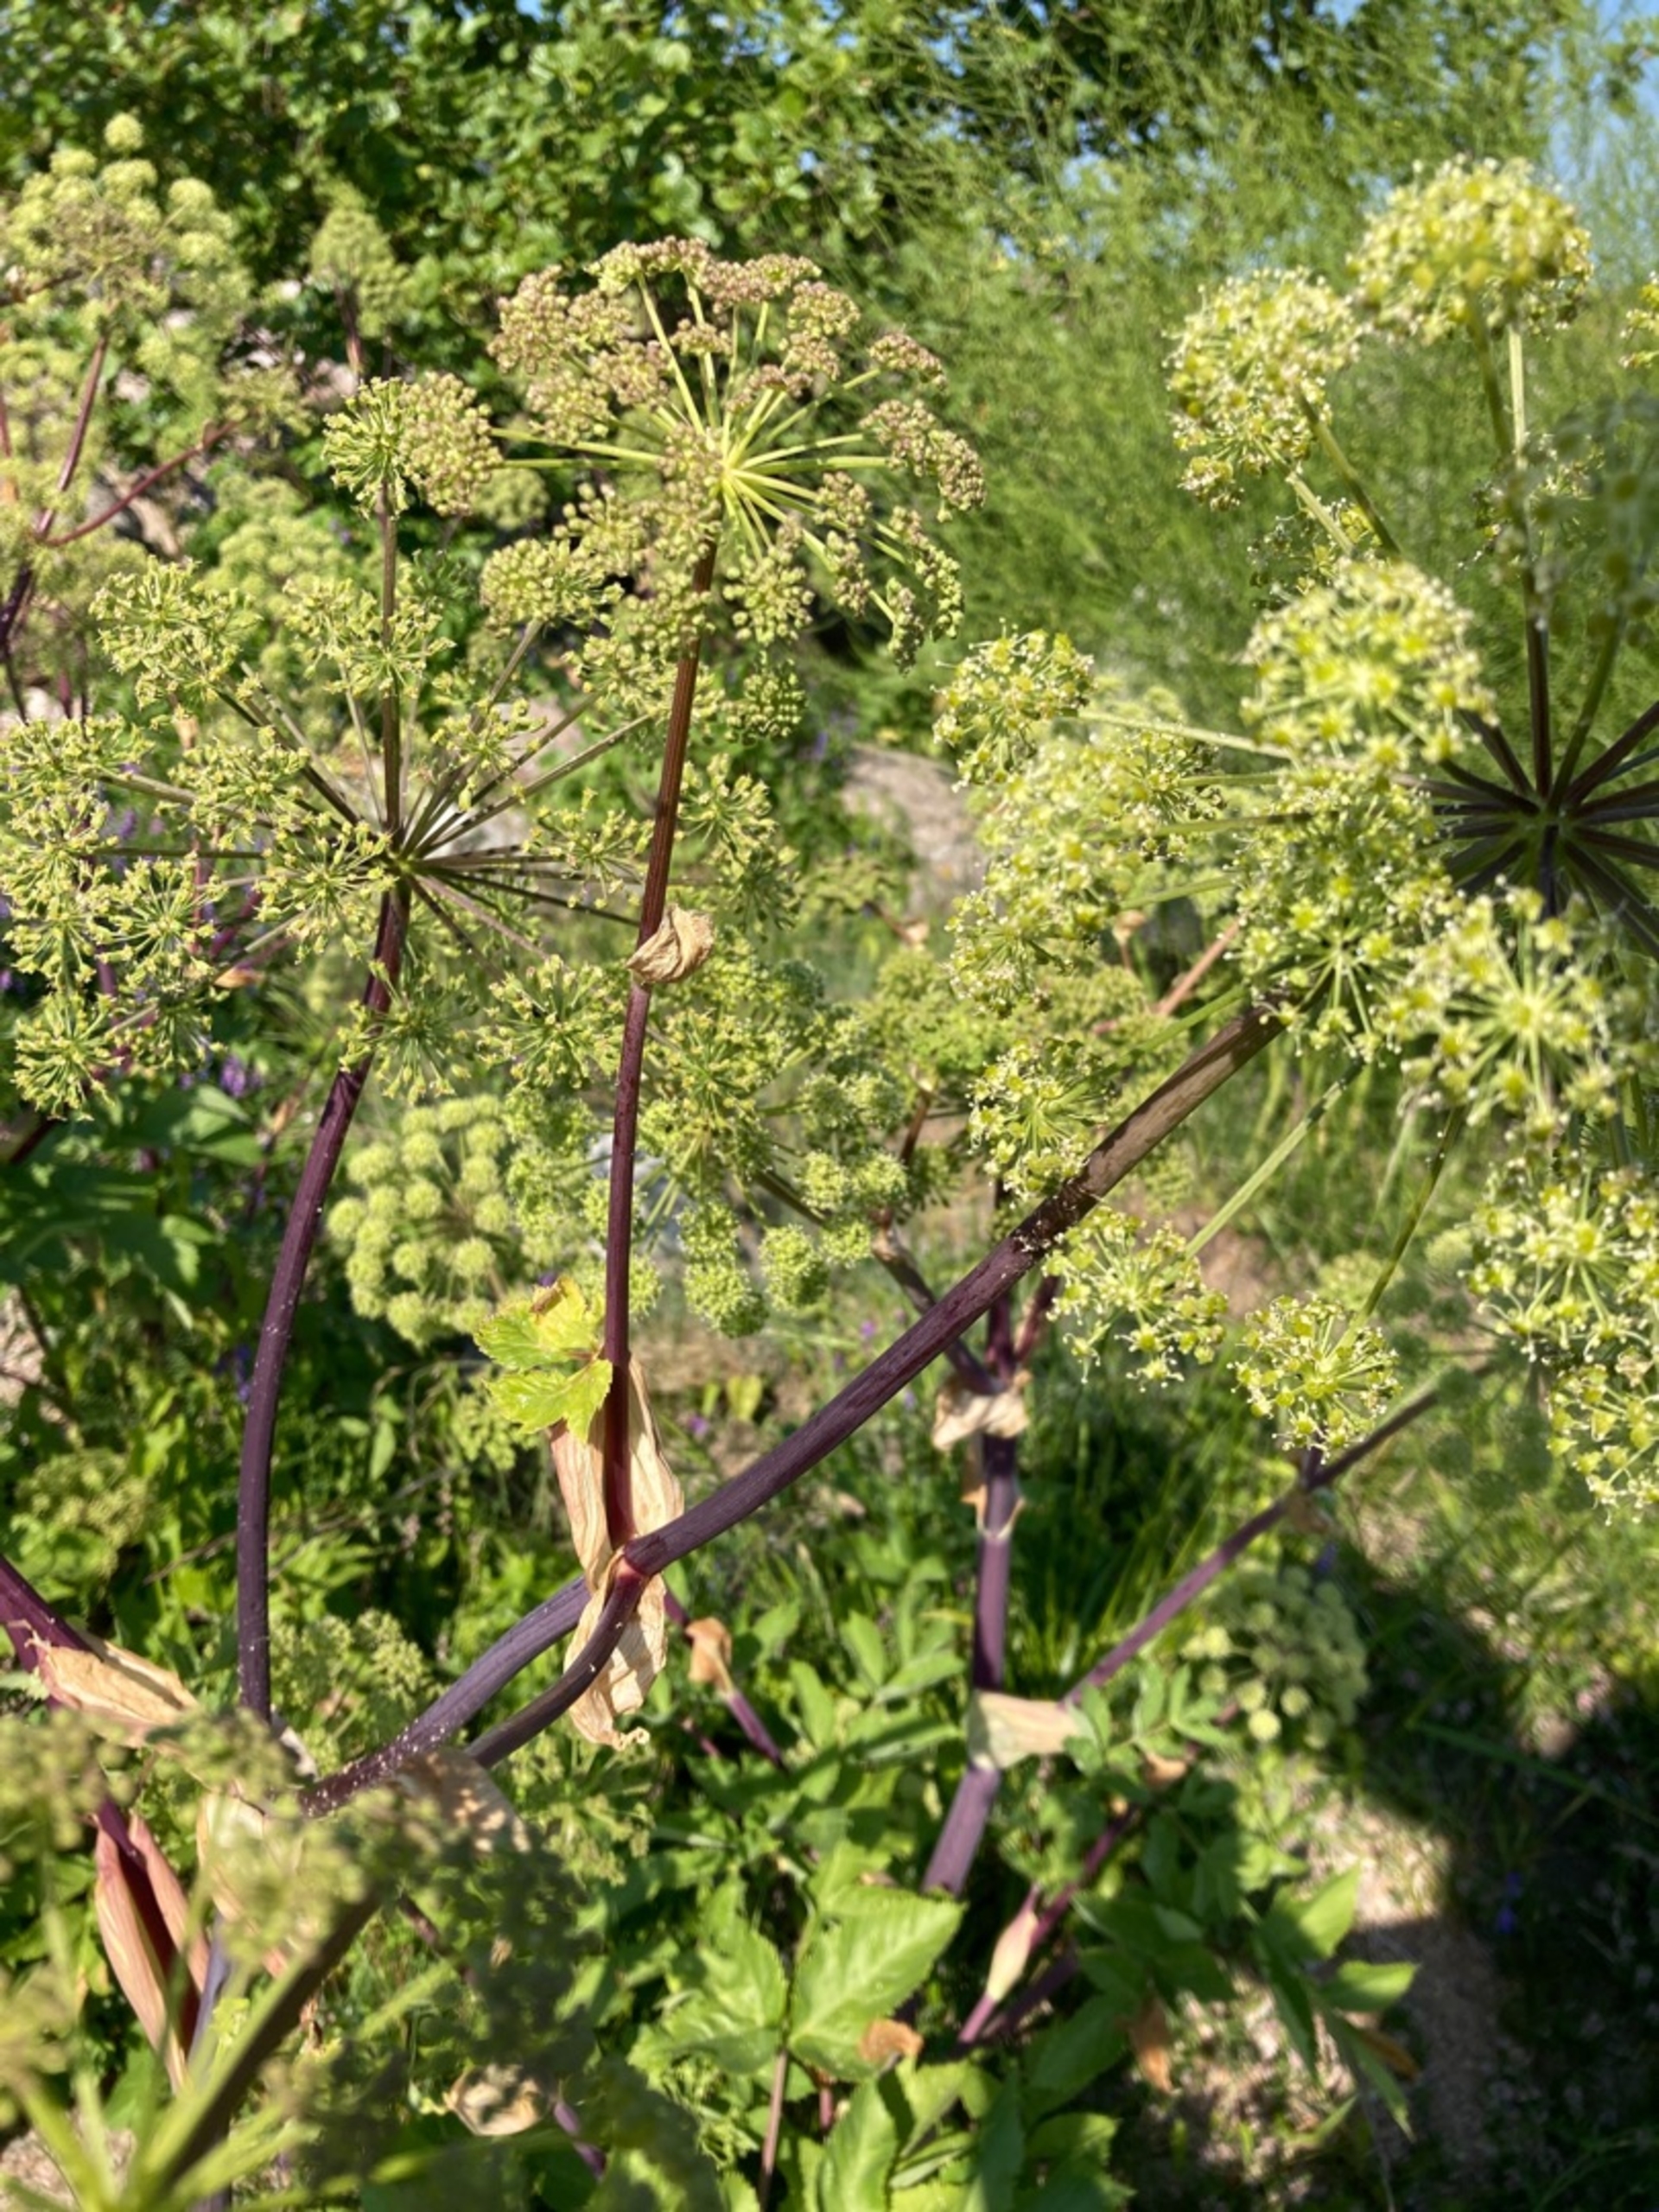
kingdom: Plantae
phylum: Tracheophyta
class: Magnoliopsida
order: Apiales
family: Apiaceae
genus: Angelica
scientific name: Angelica archangelica
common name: Kvan
